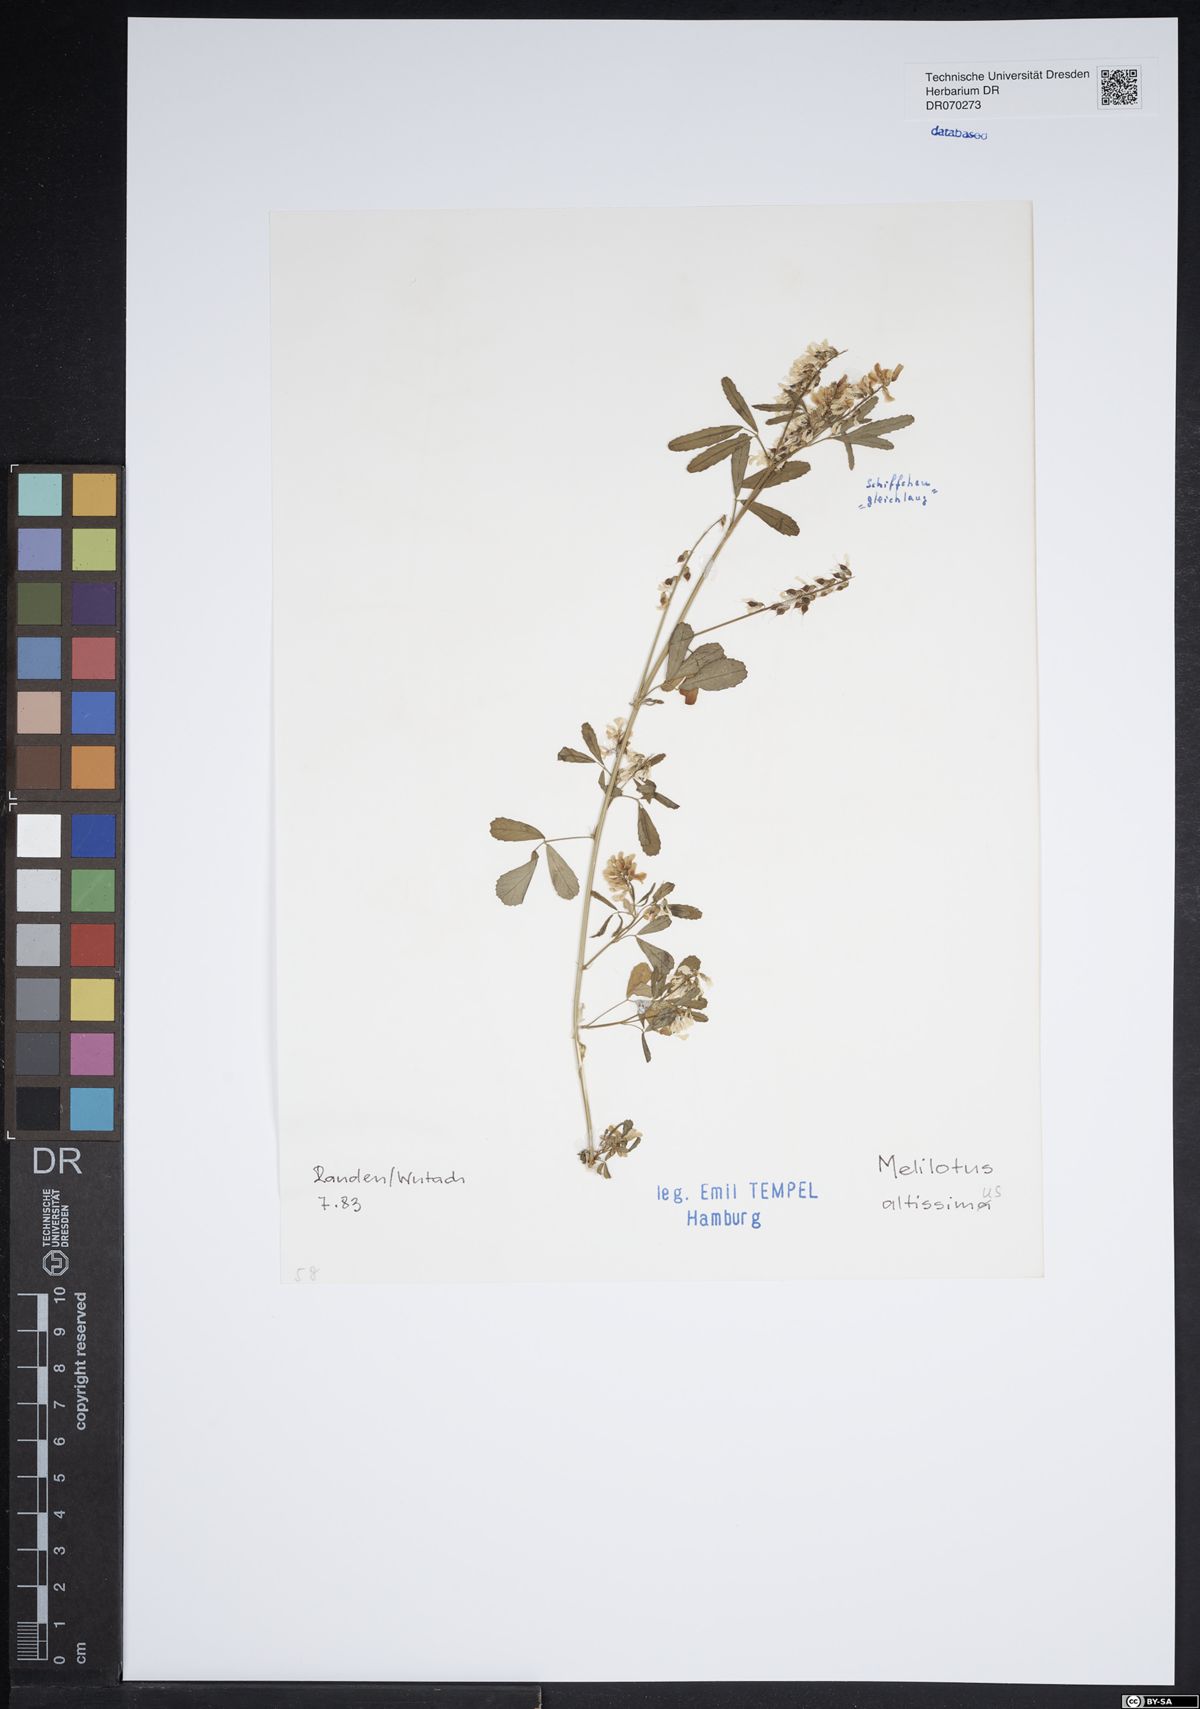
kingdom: Plantae
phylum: Tracheophyta
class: Magnoliopsida
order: Fabales
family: Fabaceae
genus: Melilotus
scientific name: Melilotus altissimus
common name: Tall melilot
